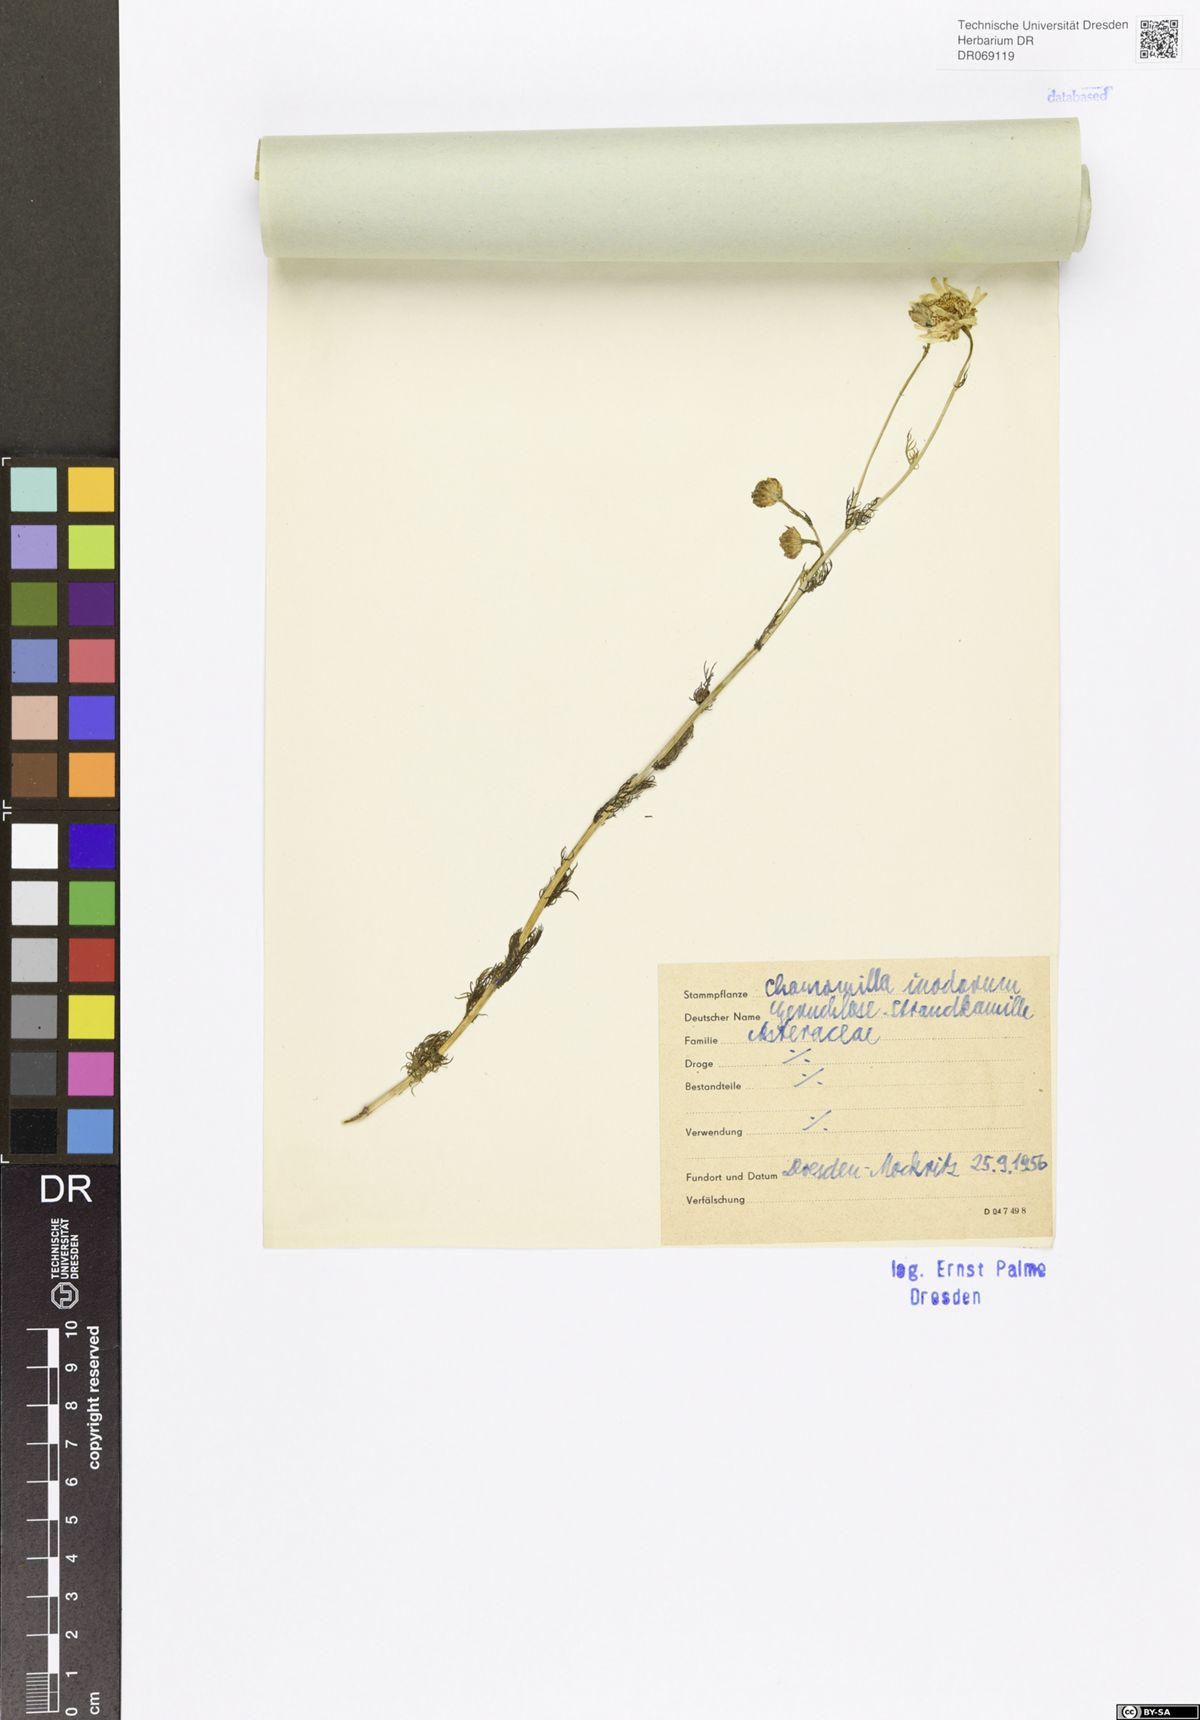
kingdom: Plantae
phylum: Tracheophyta
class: Magnoliopsida
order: Asterales
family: Asteraceae
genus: Tripleurospermum
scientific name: Tripleurospermum inodorum
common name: Scentless mayweed
